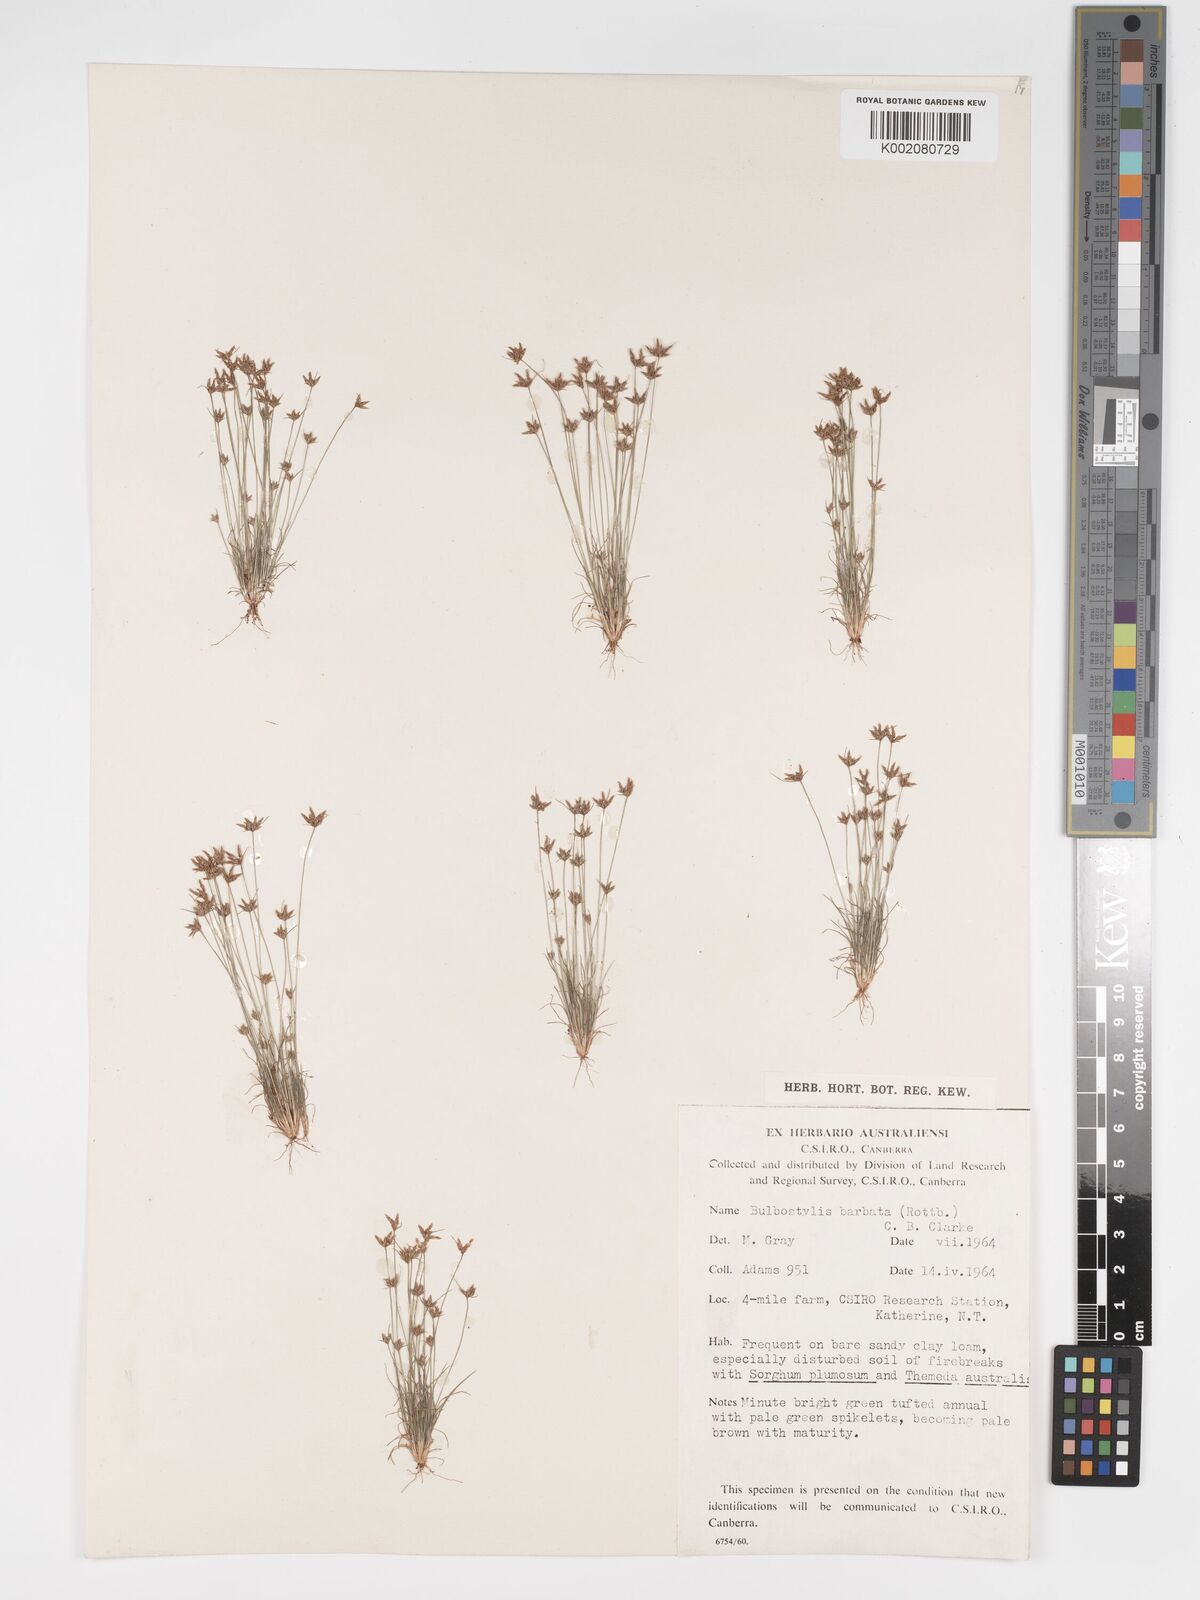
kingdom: Plantae
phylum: Tracheophyta
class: Liliopsida
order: Poales
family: Cyperaceae
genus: Bulbostylis
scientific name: Bulbostylis barbata
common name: Watergrass
